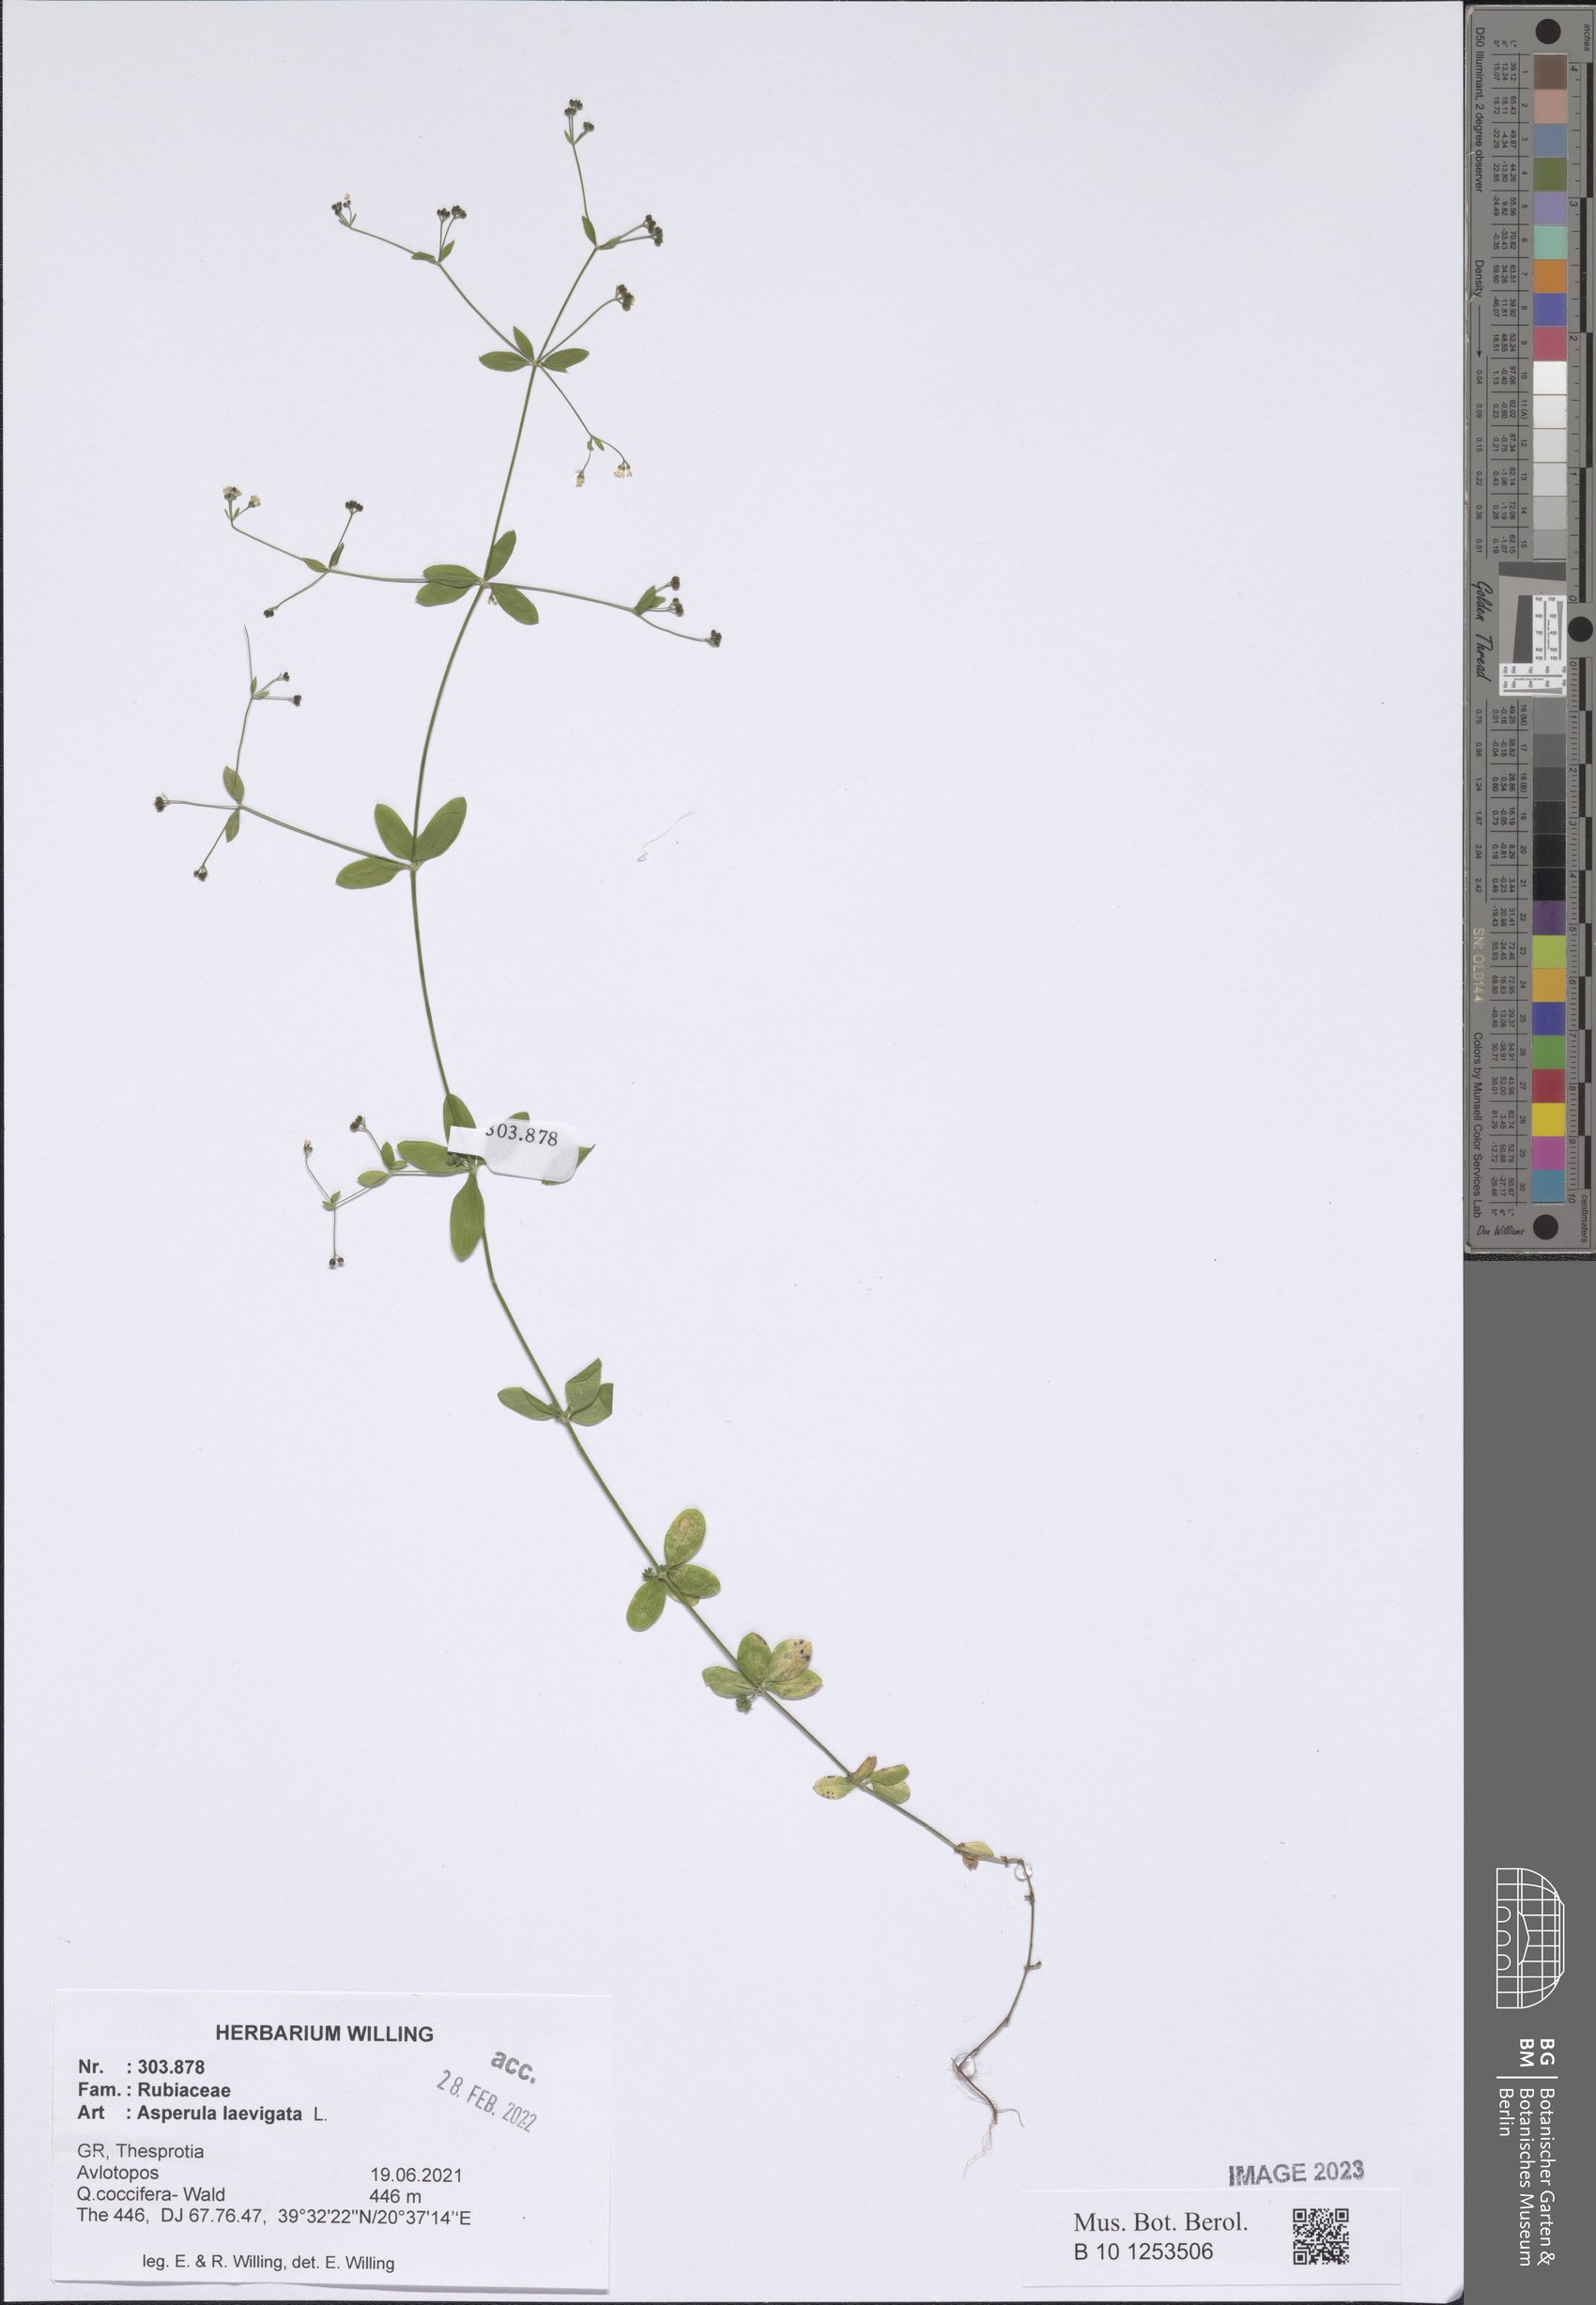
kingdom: Plantae
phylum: Tracheophyta
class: Magnoliopsida
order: Gentianales
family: Rubiaceae
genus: Asperula
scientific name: Asperula laevigata
